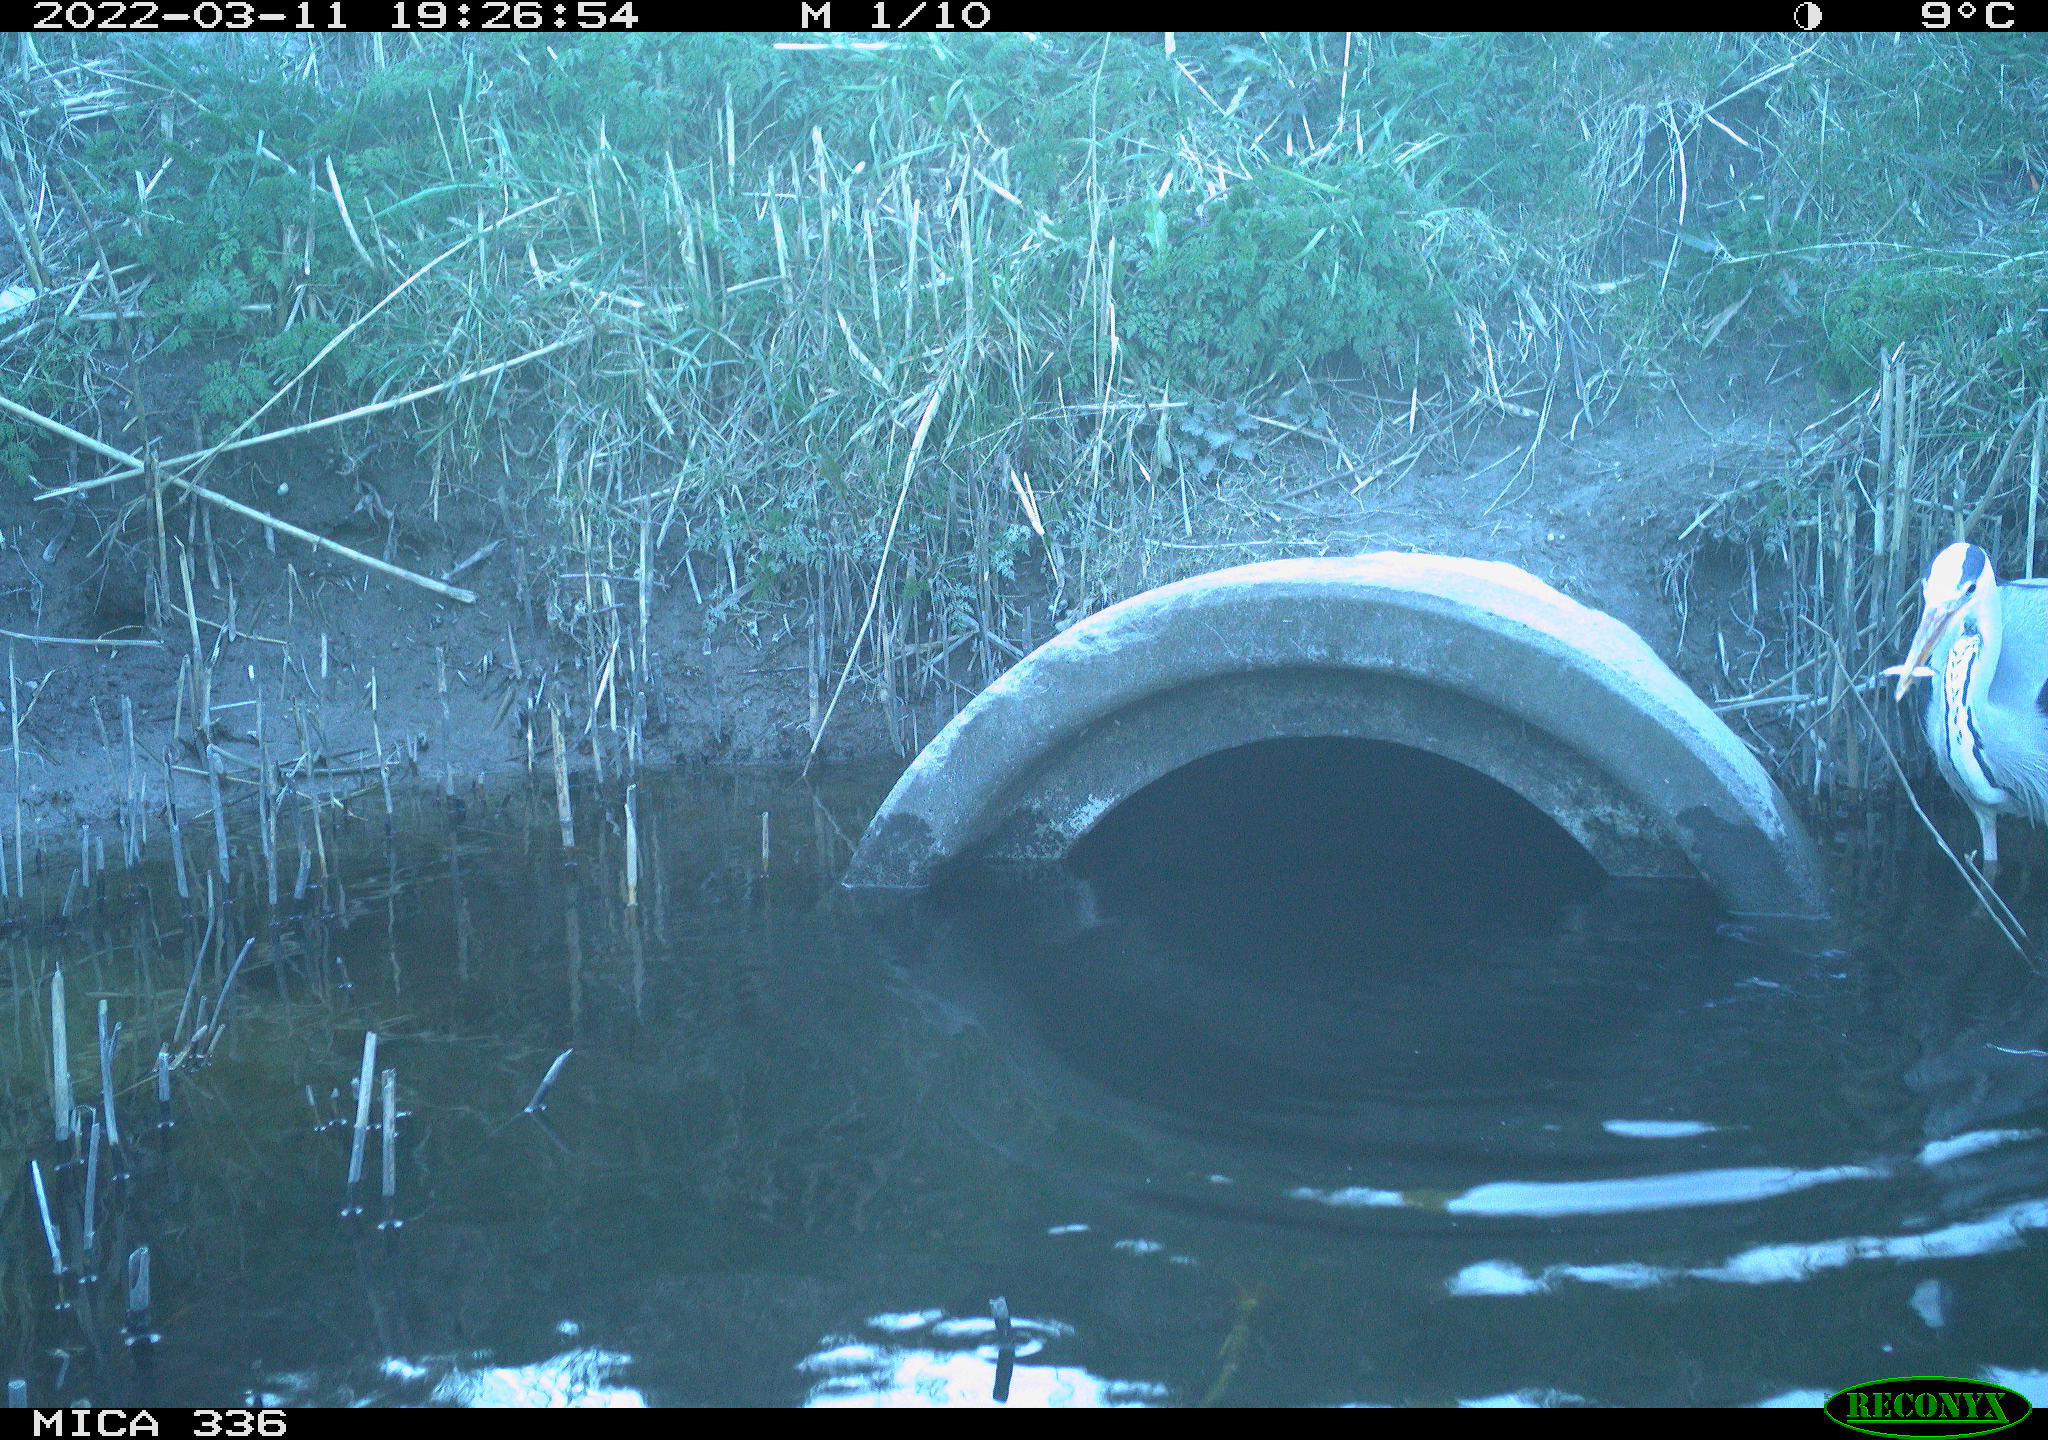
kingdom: Animalia
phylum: Chordata
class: Aves
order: Pelecaniformes
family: Ardeidae
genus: Ardea
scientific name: Ardea cinerea
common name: Grey heron
